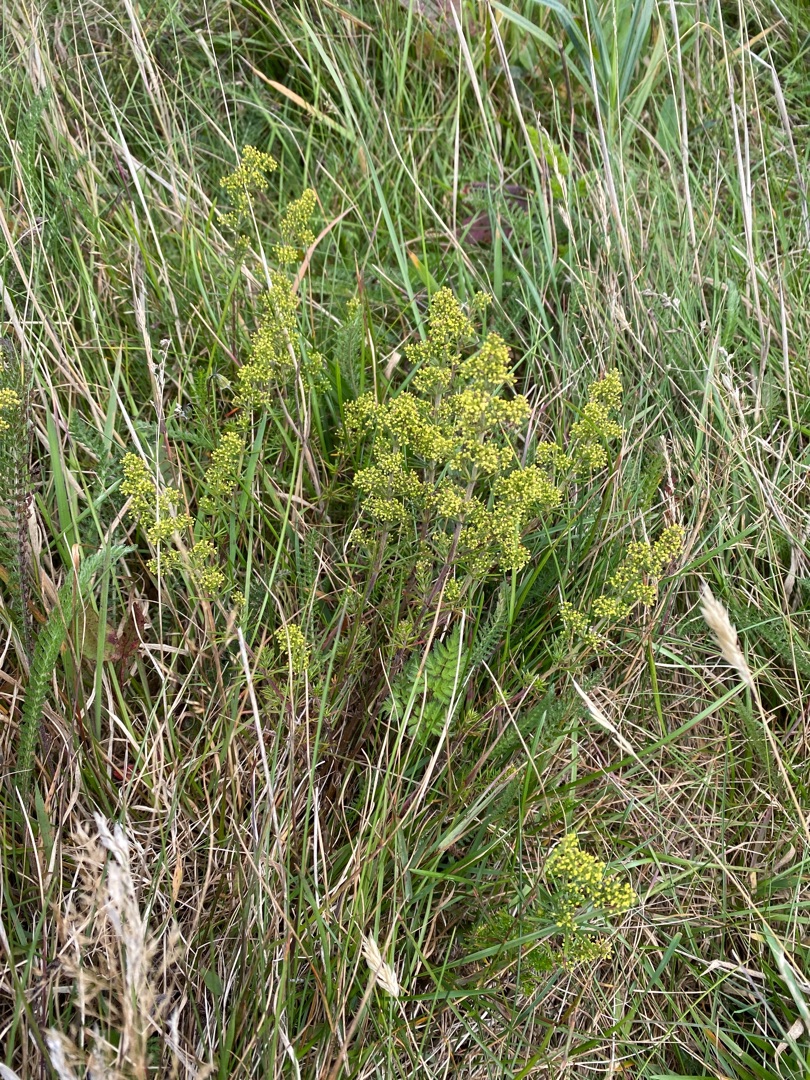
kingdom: Plantae
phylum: Tracheophyta
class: Magnoliopsida
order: Gentianales
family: Rubiaceae
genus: Galium
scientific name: Galium verum
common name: Gul snerre
